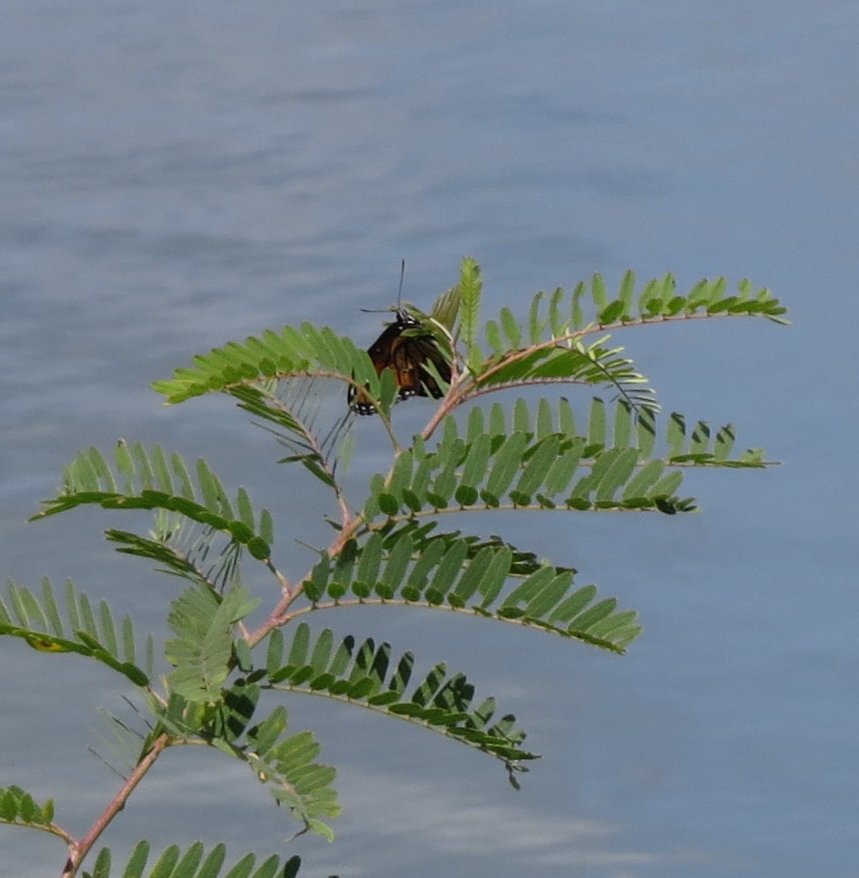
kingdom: Animalia
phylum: Arthropoda
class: Insecta
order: Lepidoptera
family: Nymphalidae
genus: Limenitis
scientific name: Limenitis archippus
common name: Viceroy
